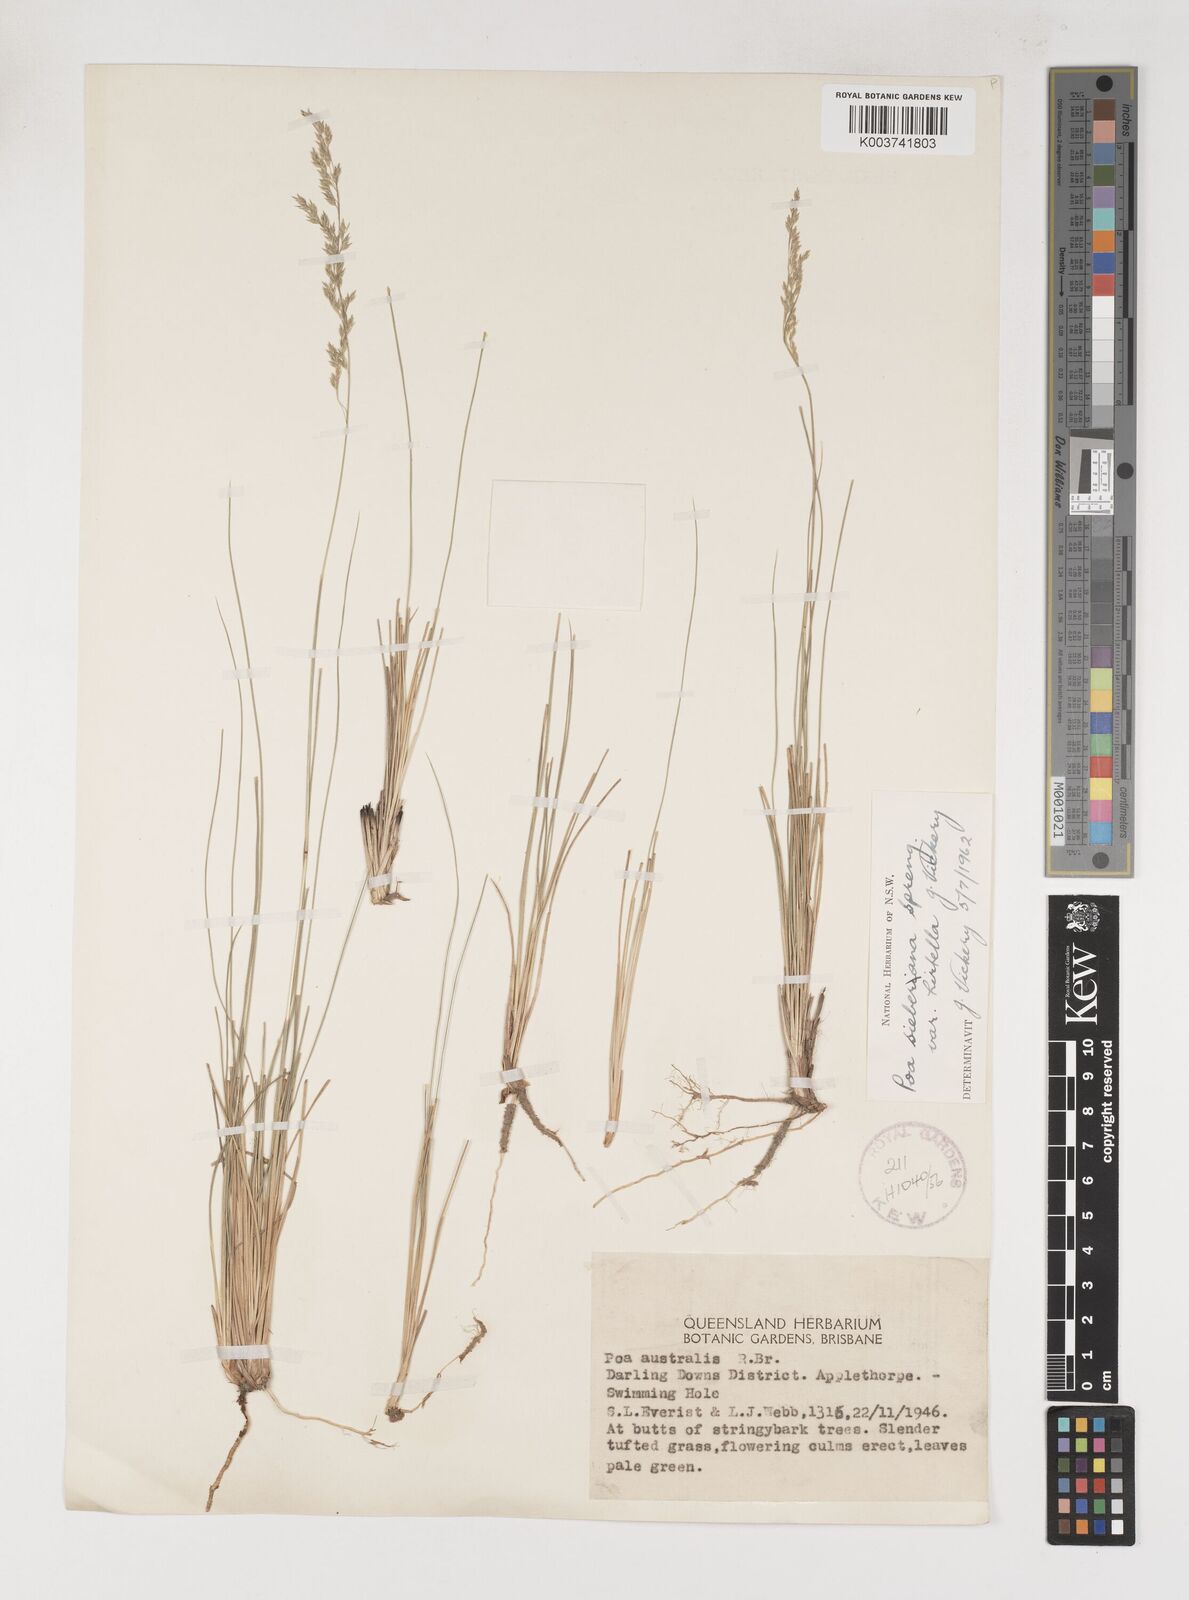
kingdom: Plantae
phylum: Tracheophyta
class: Liliopsida
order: Poales
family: Poaceae
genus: Poa
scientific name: Poa sieberiana
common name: Tussock poa
